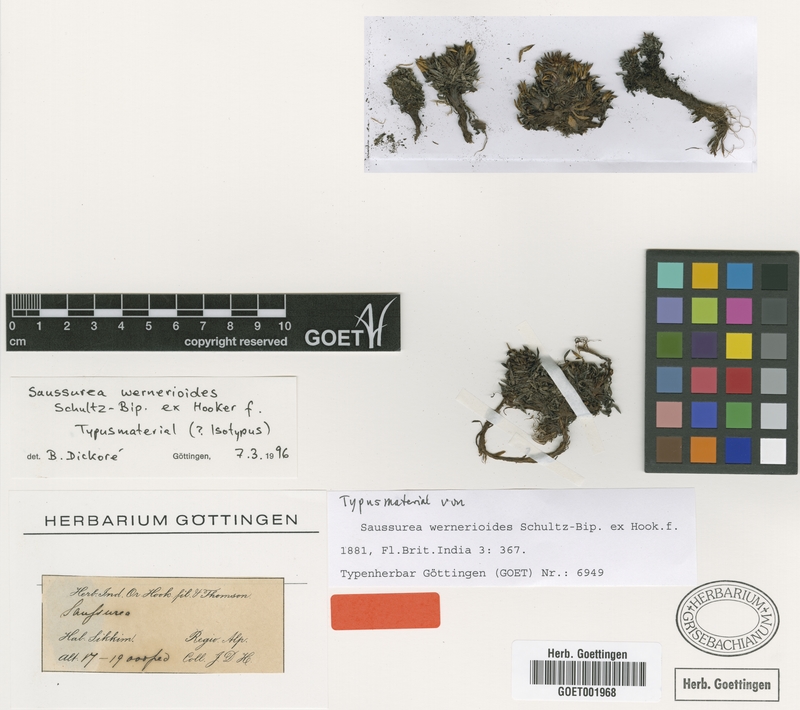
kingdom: Plantae
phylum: Tracheophyta
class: Magnoliopsida
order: Asterales
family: Asteraceae
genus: Saussurea
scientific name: Saussurea wernerioides
